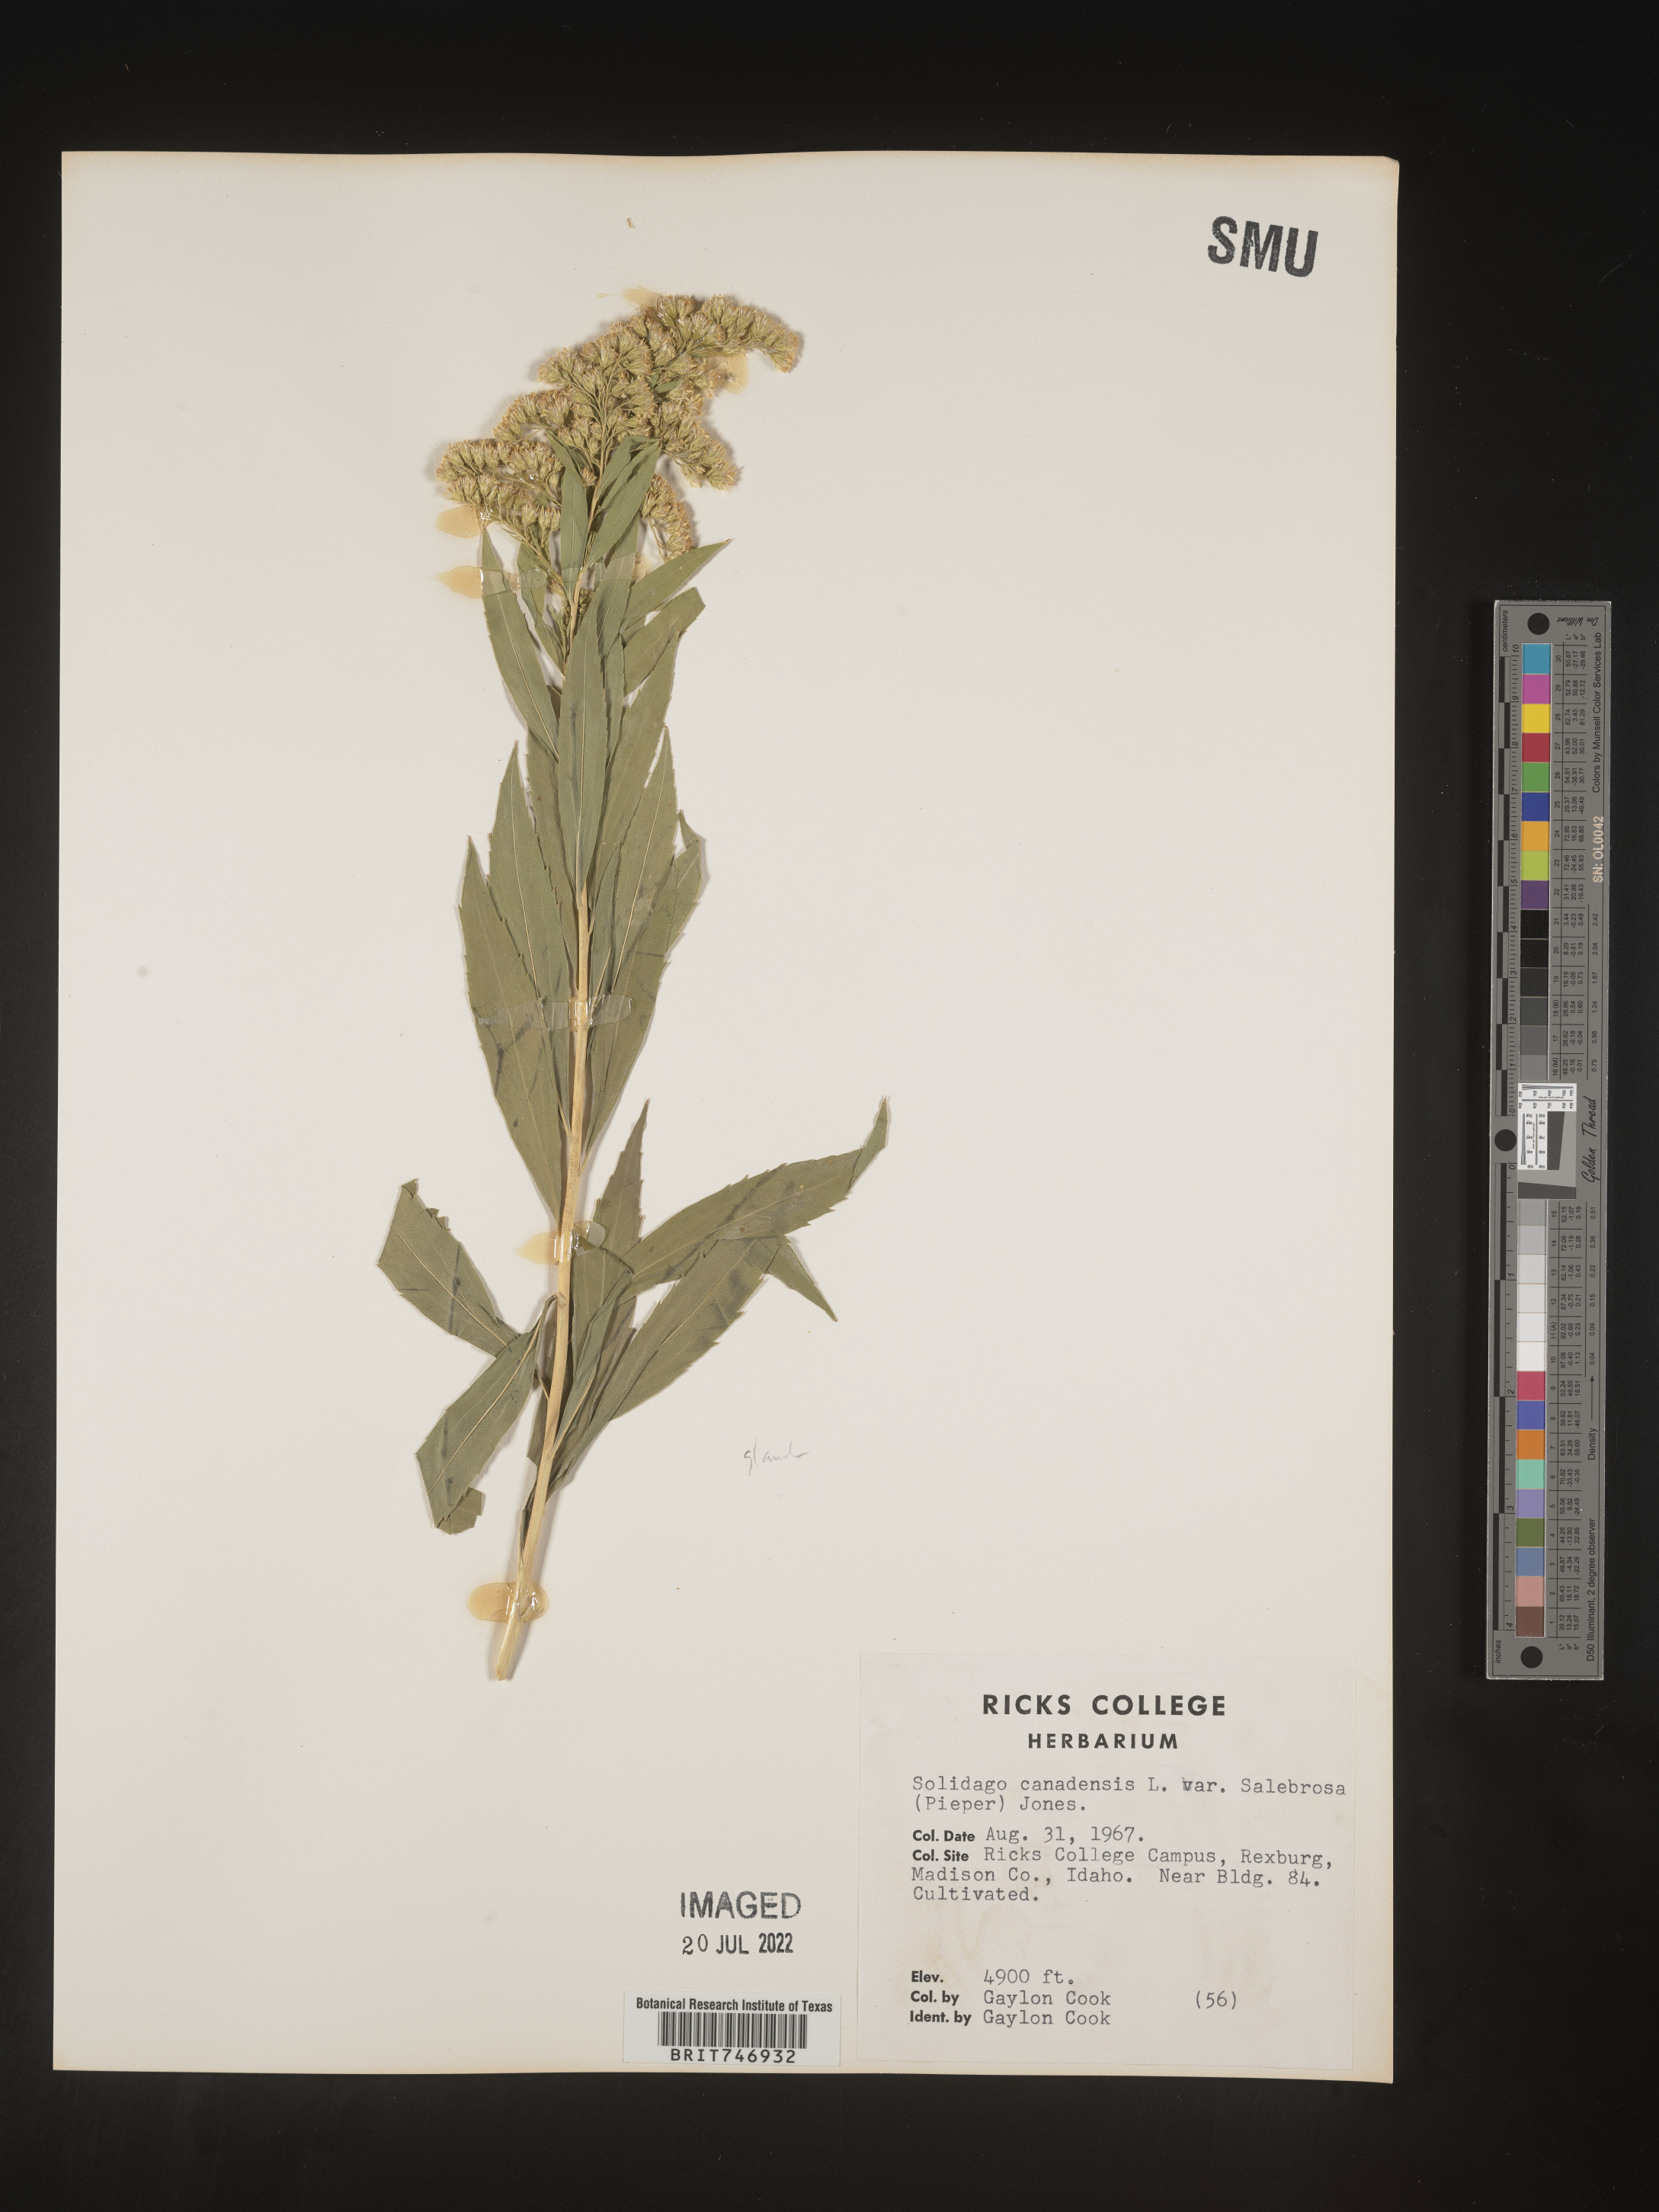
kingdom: Plantae
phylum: Tracheophyta
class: Magnoliopsida
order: Asterales
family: Asteraceae
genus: Solidago
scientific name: Solidago lepida
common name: Western canada goldenrod
